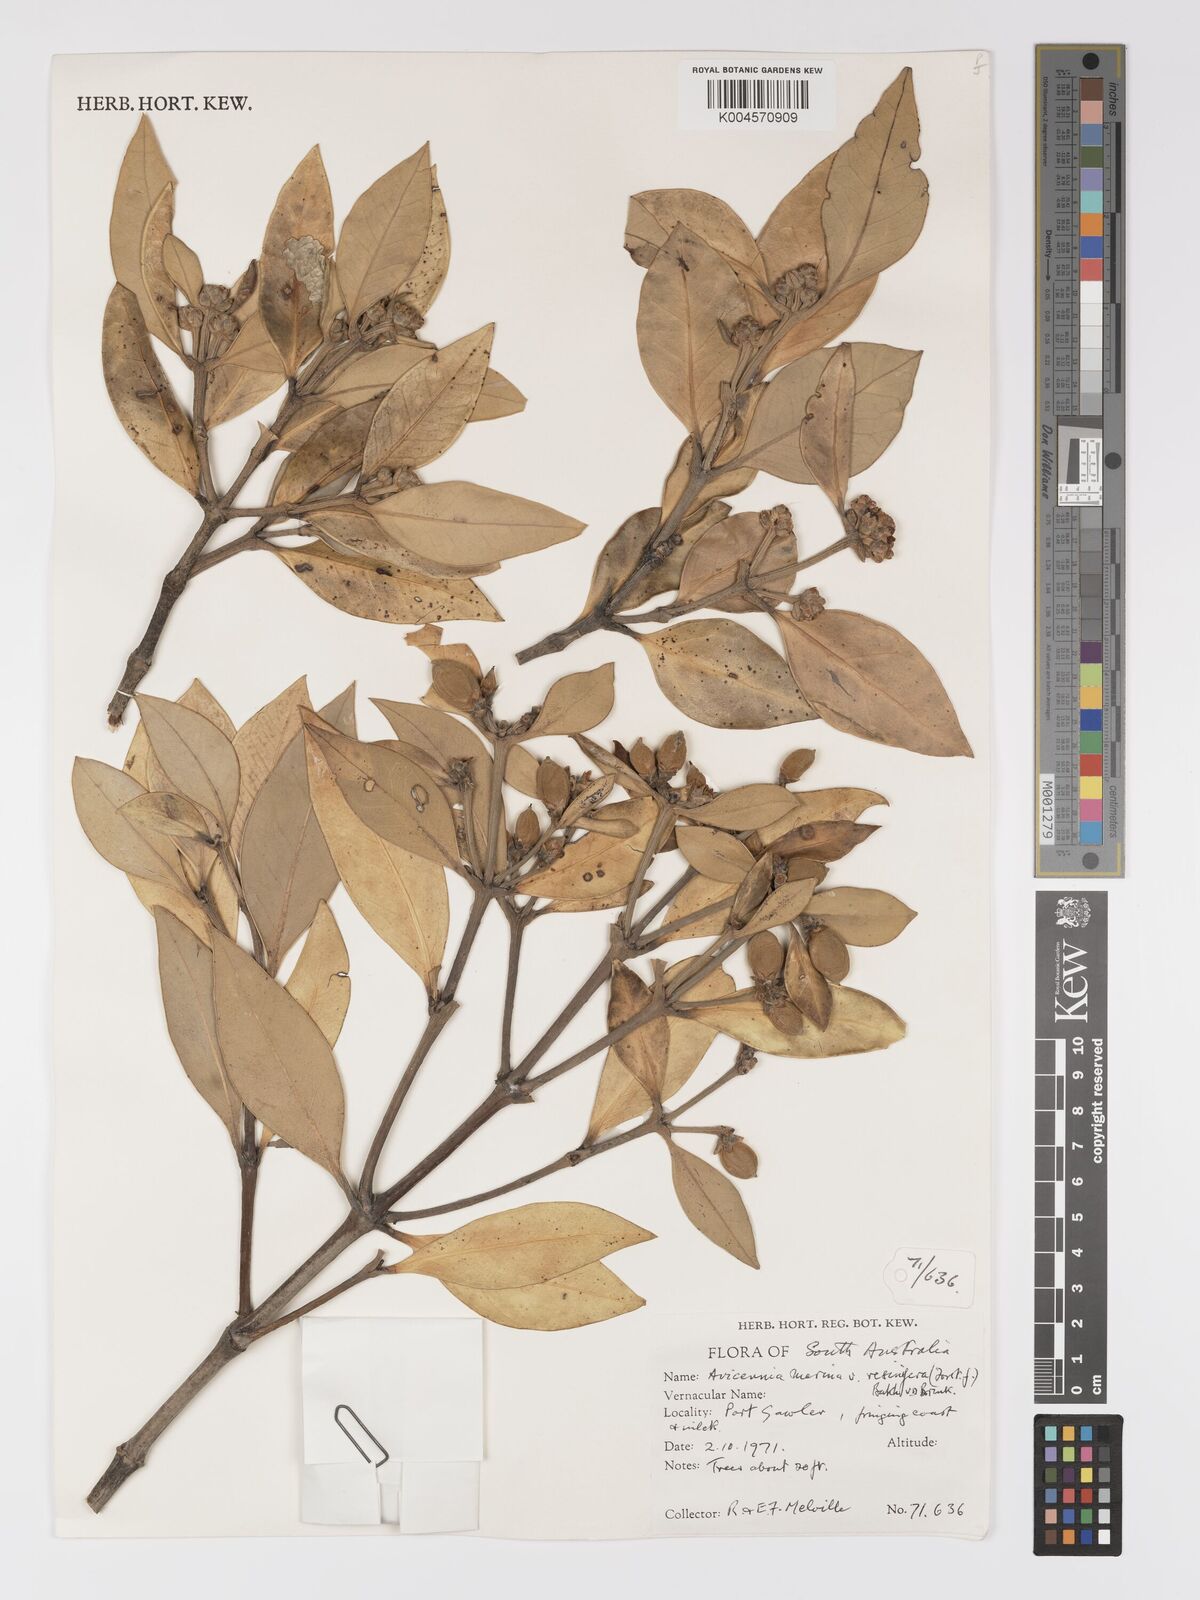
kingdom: Plantae
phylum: Tracheophyta
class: Magnoliopsida
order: Lamiales
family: Acanthaceae
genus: Avicennia
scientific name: Avicennia marina
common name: Gray mangrove
